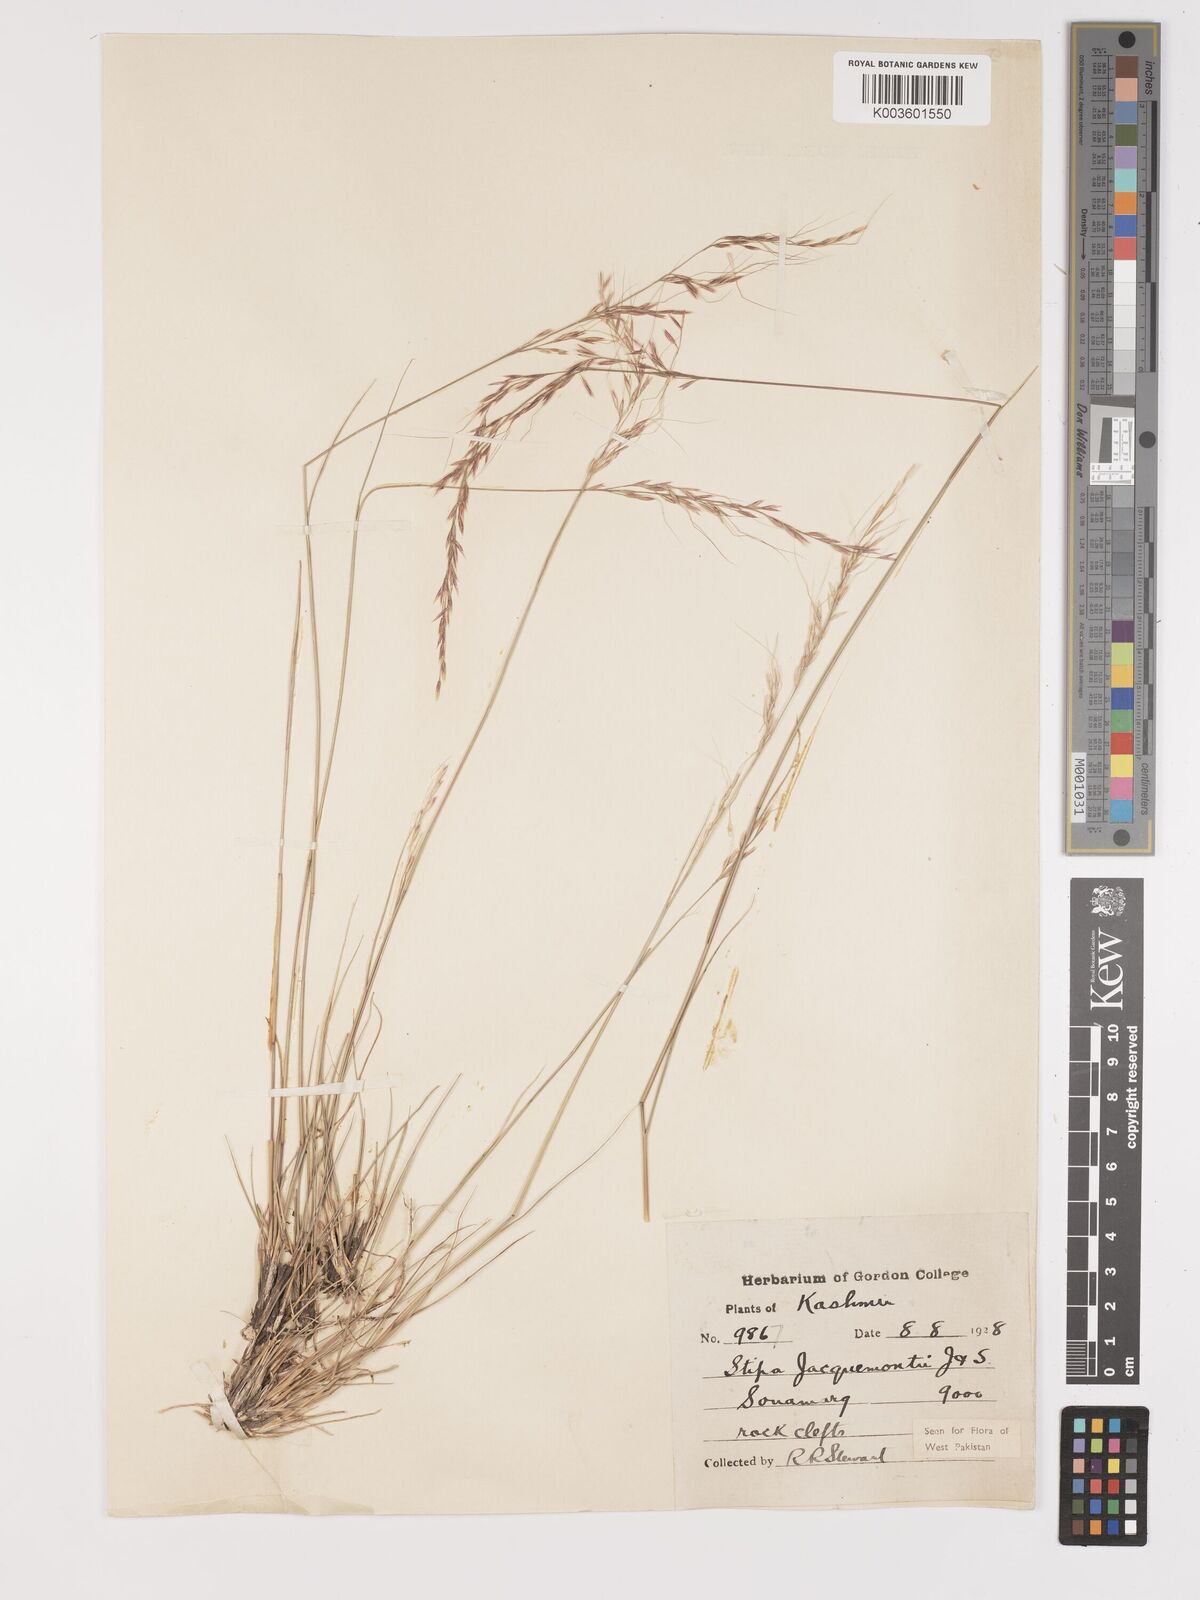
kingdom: Plantae
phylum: Tracheophyta
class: Liliopsida
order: Poales
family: Poaceae
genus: Achnatherum
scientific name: Achnatherum jacquemontii
